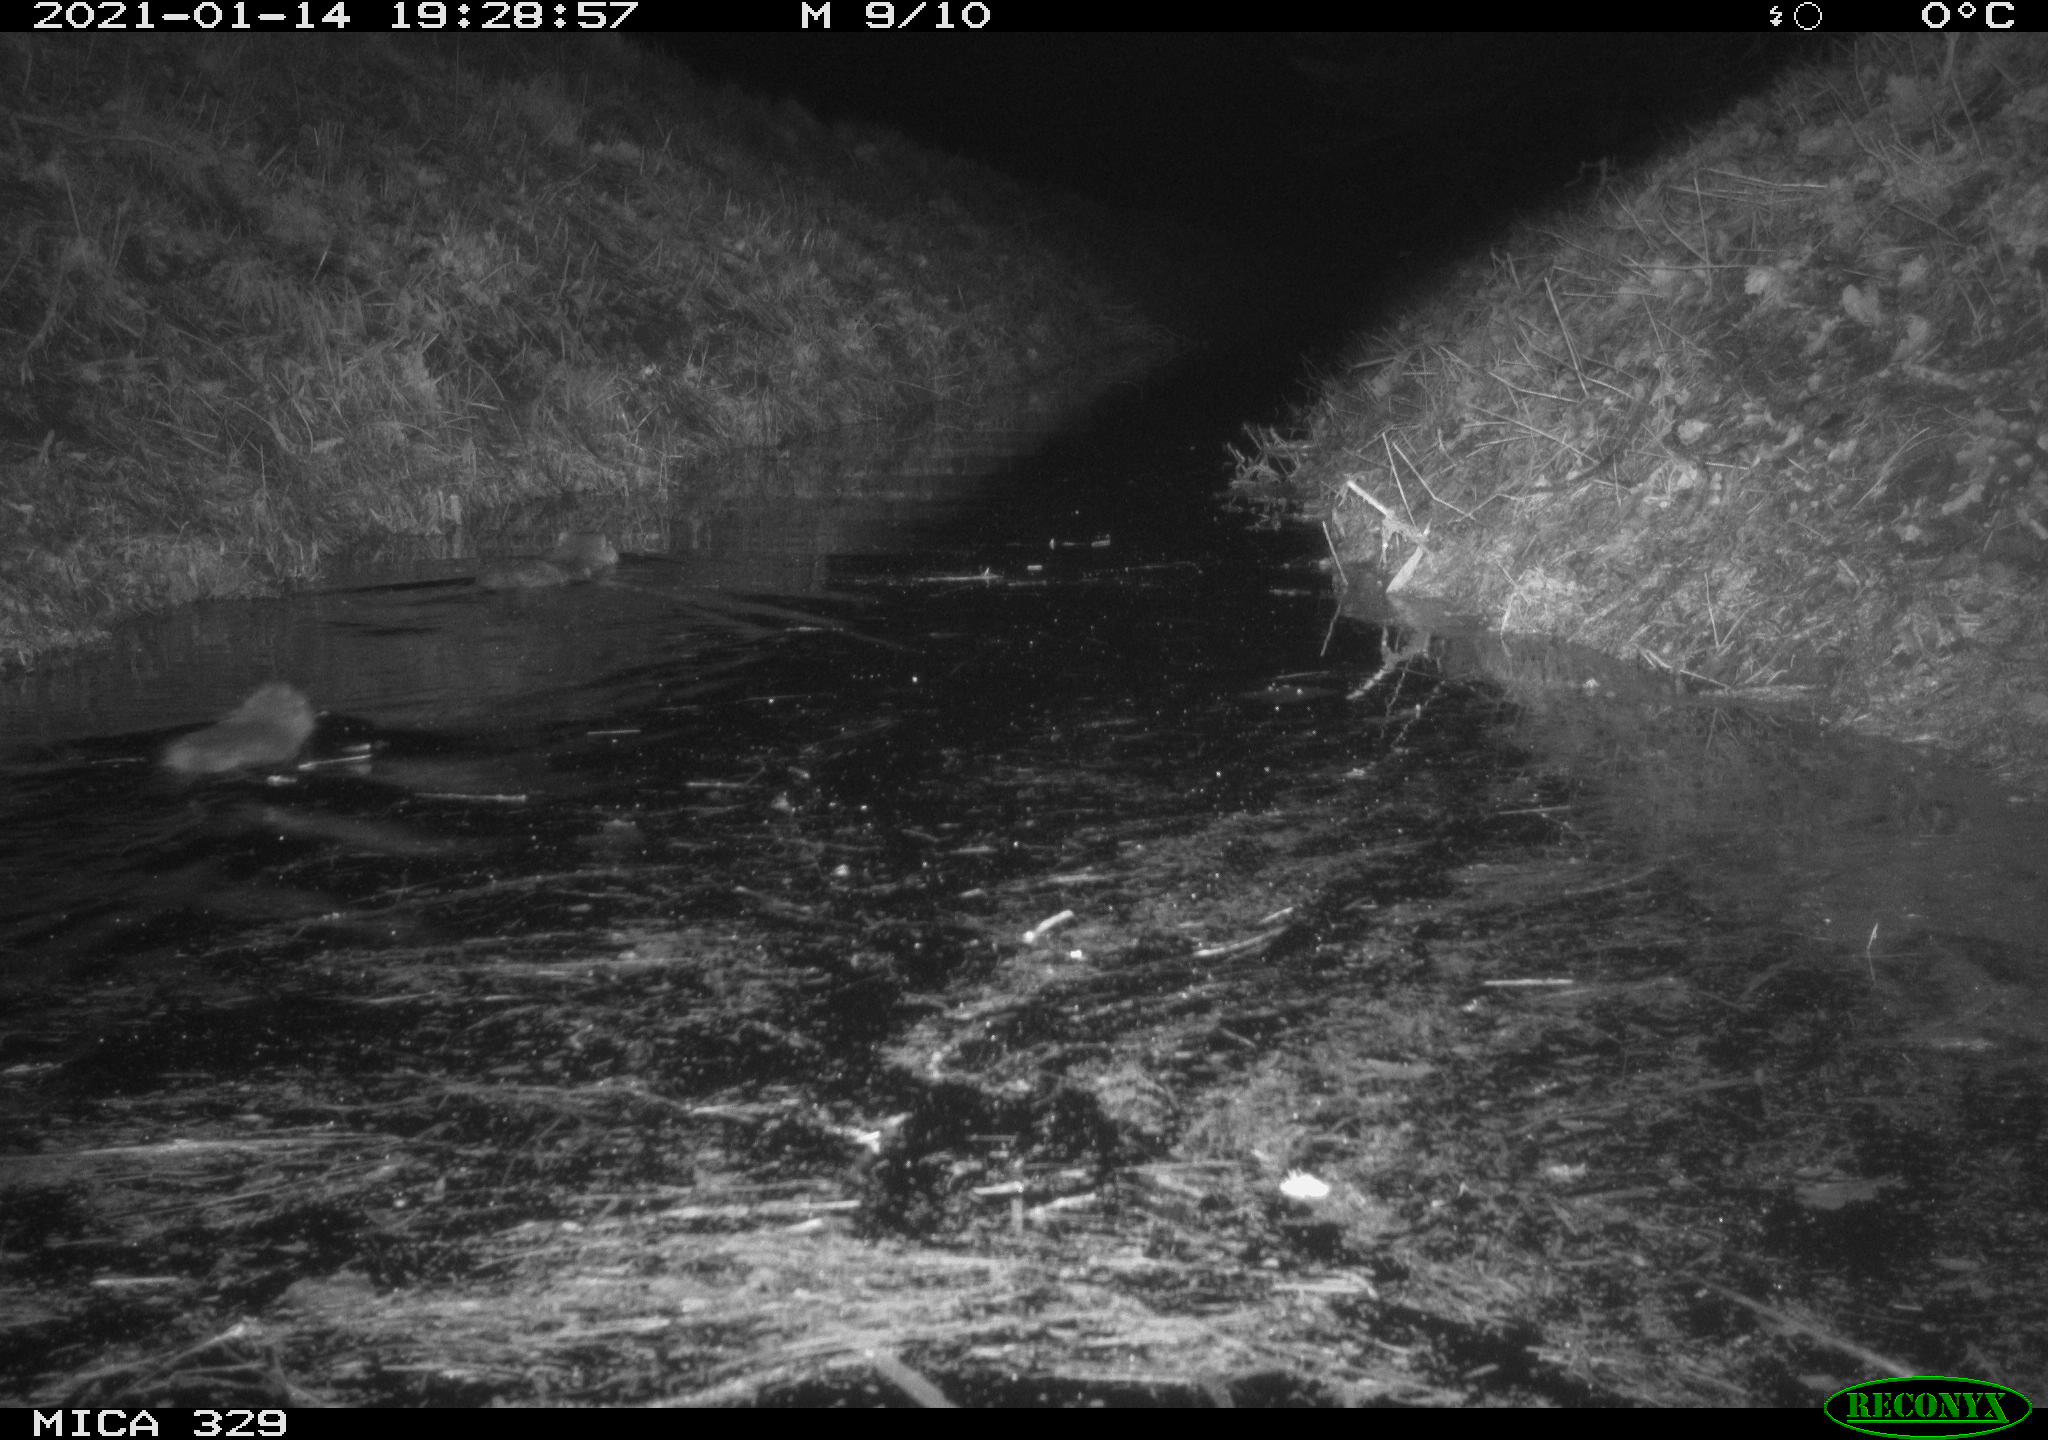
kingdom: Animalia
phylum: Chordata
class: Mammalia
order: Rodentia
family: Myocastoridae
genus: Myocastor
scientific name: Myocastor coypus
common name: Coypu
